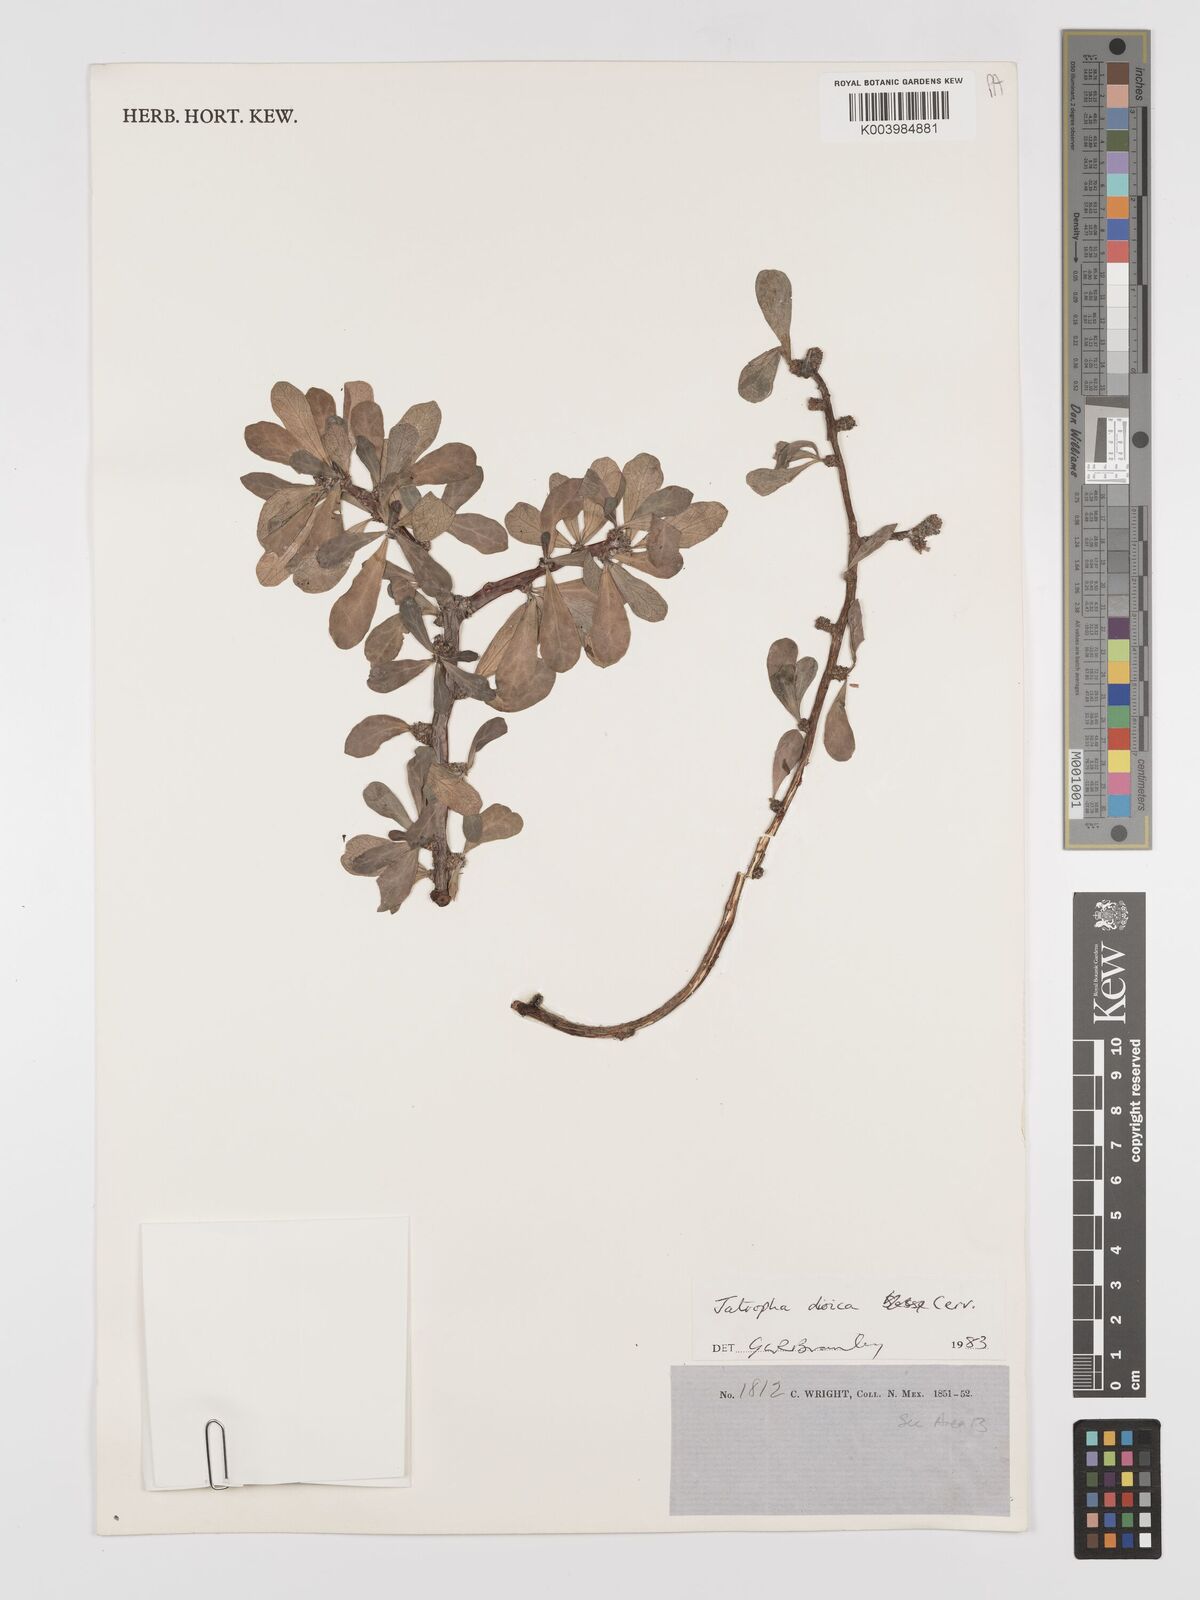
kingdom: Plantae
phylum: Tracheophyta
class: Magnoliopsida
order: Malpighiales
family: Euphorbiaceae
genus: Jatropha
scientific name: Jatropha dioica
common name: Leatherstem
